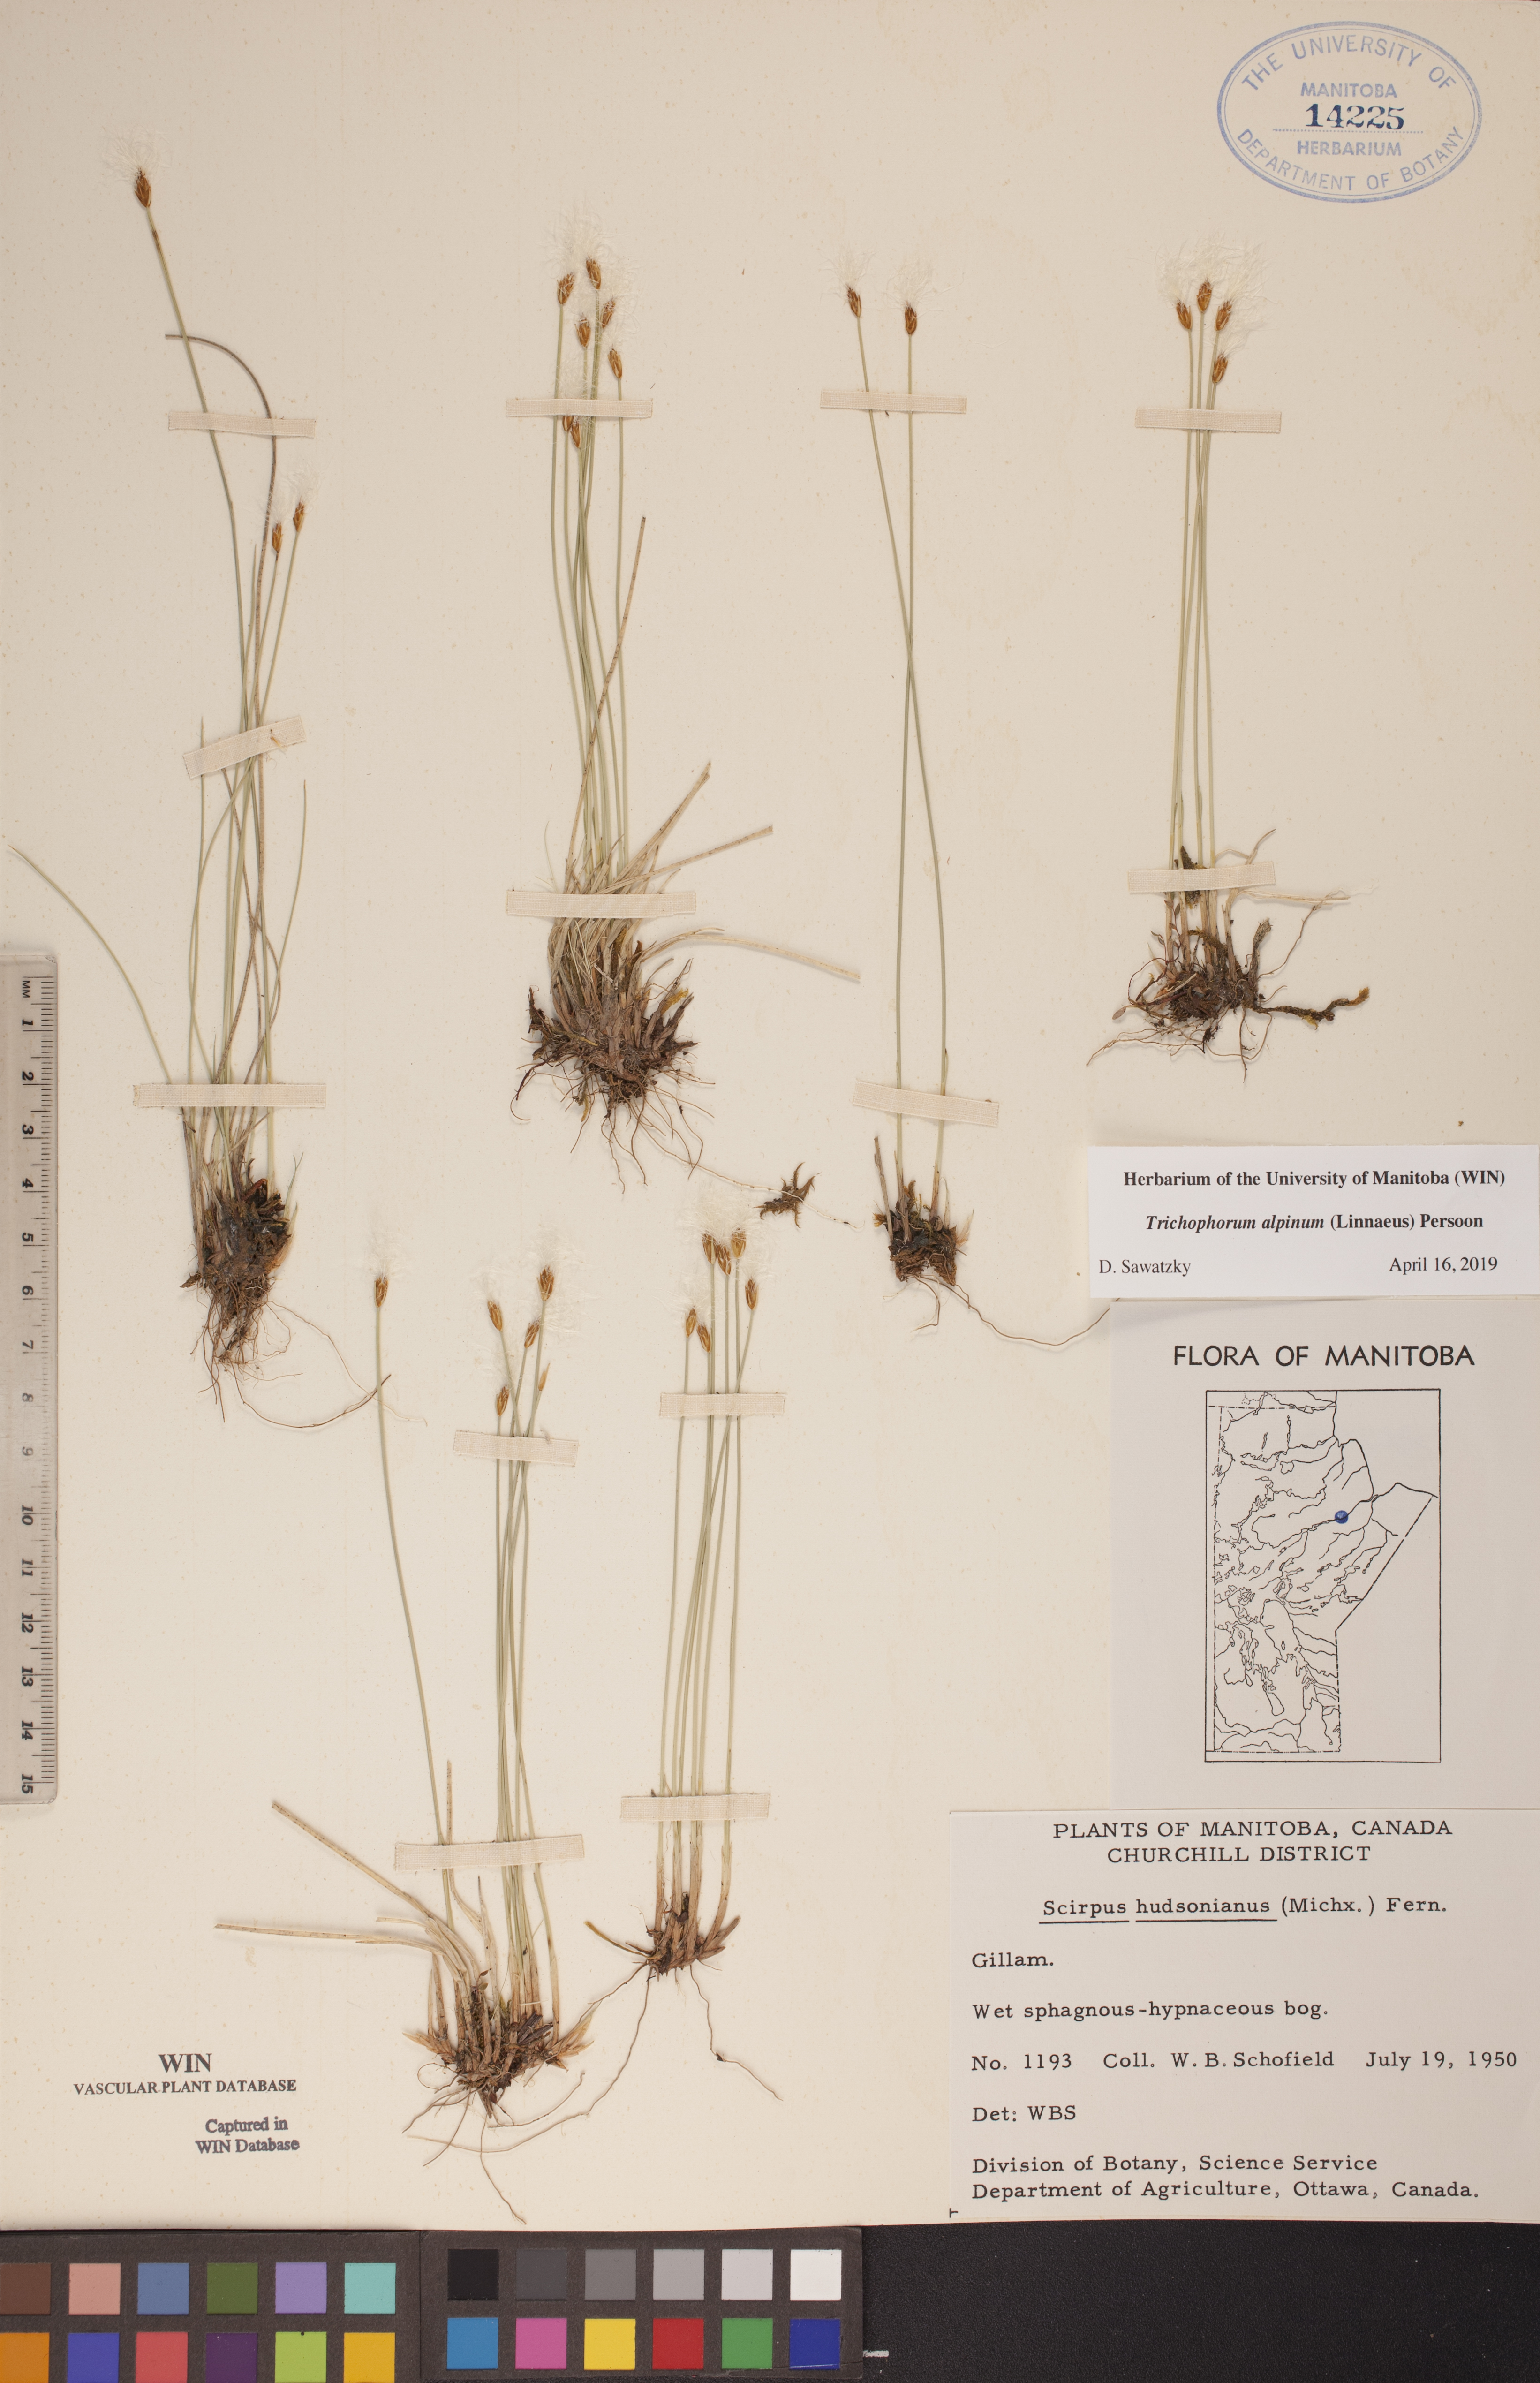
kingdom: Plantae
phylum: Tracheophyta
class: Liliopsida
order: Poales
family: Cyperaceae
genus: Trichophorum
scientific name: Trichophorum alpinum
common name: Alpine bulrush
